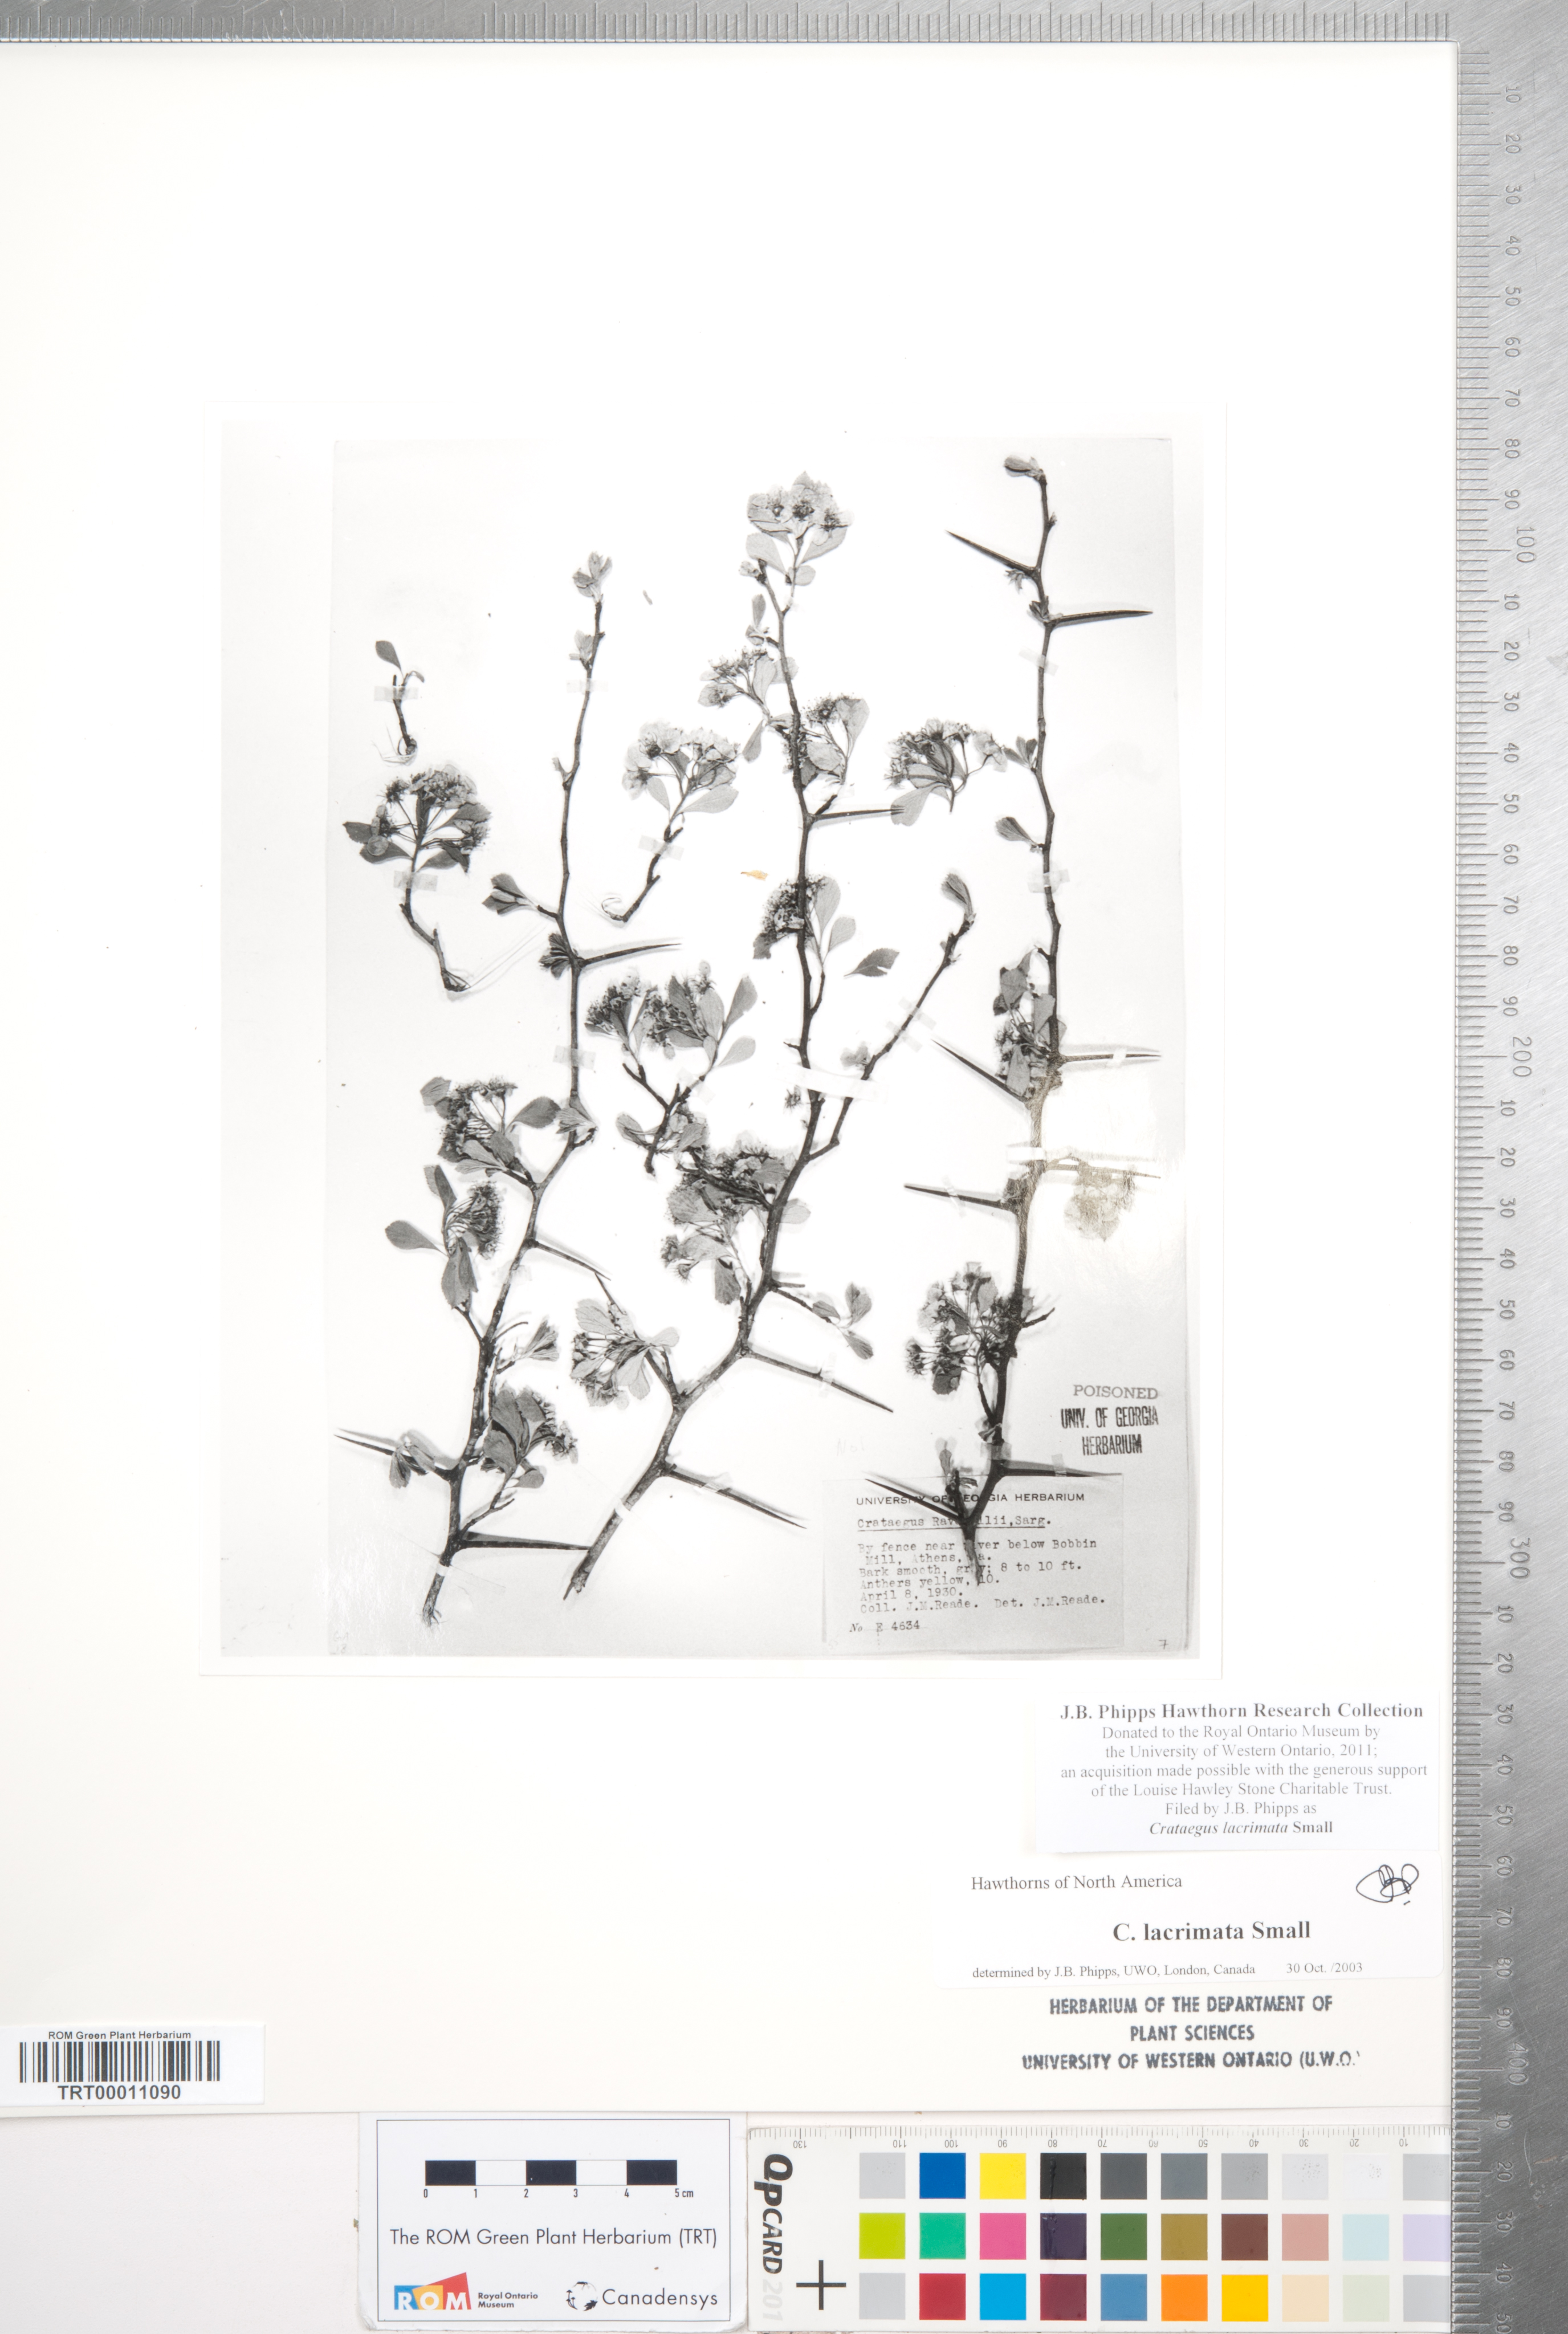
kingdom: Plantae
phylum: Tracheophyta
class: Magnoliopsida
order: Rosales
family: Rosaceae
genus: Crataegus
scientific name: Crataegus lacrimata
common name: Weeping hawthorn
